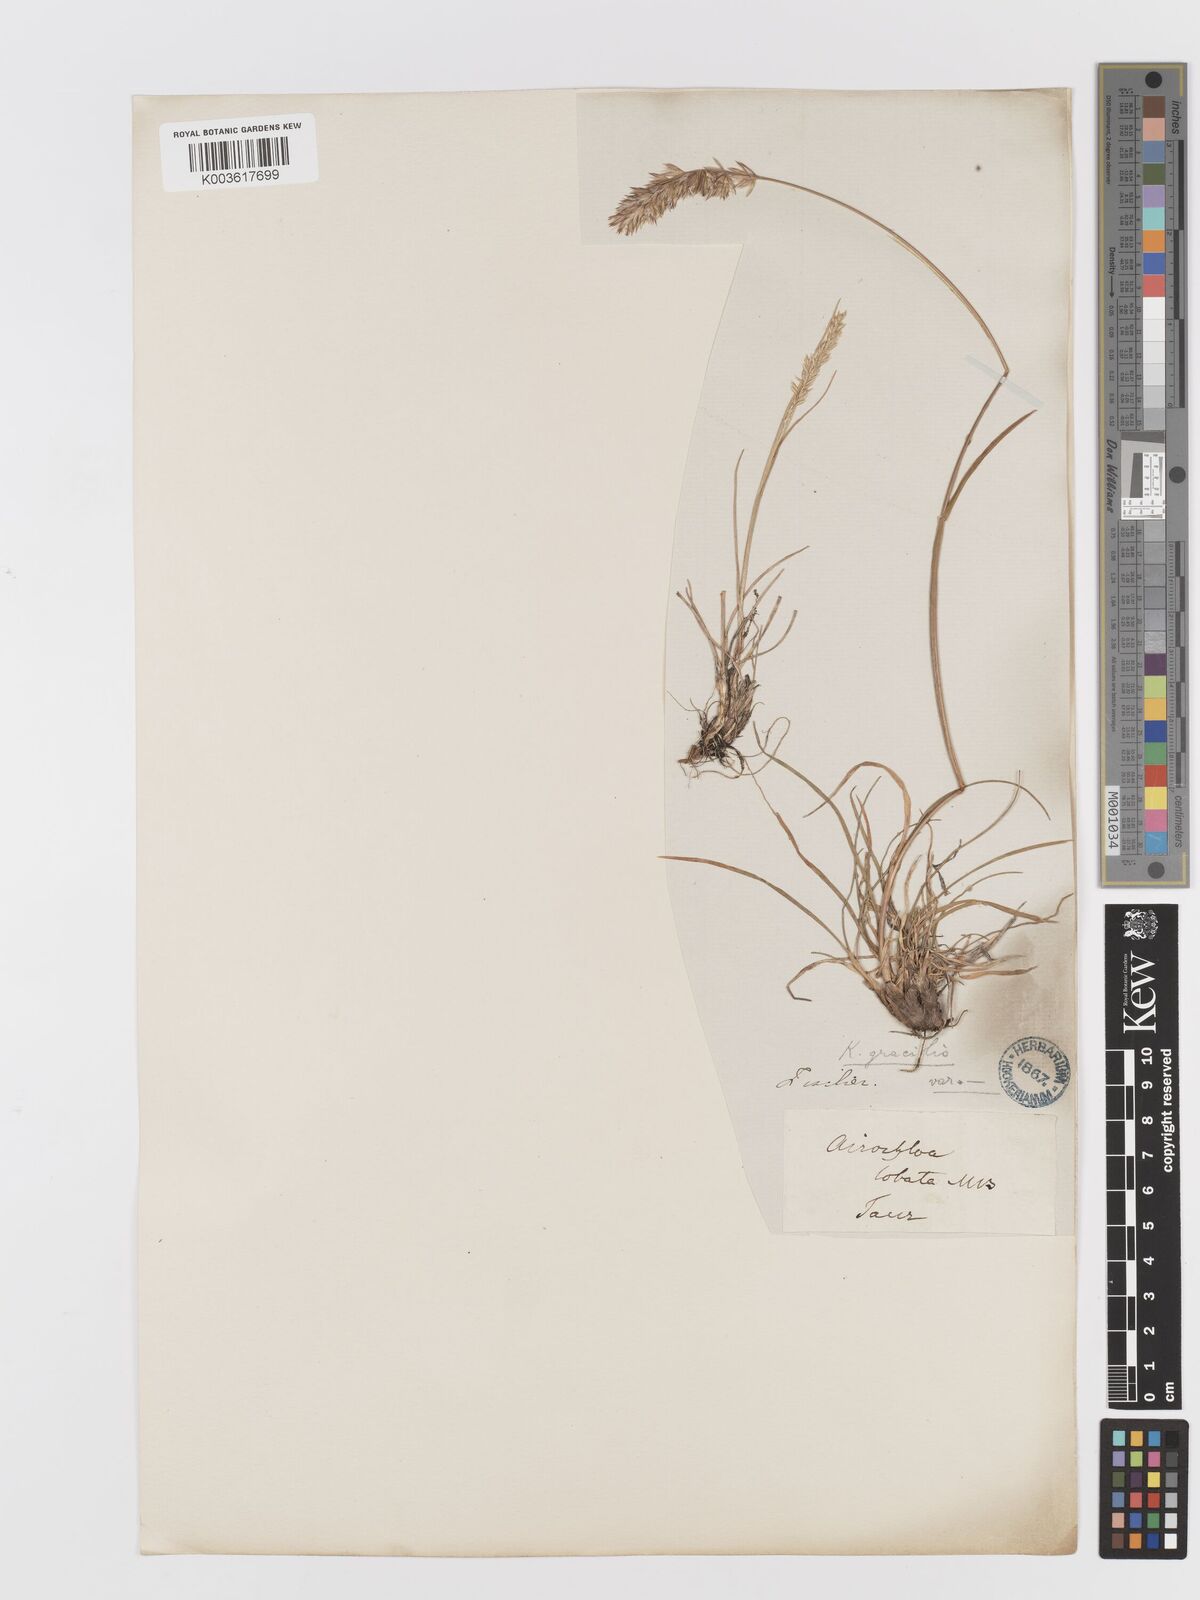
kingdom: Plantae
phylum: Tracheophyta
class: Liliopsida
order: Poales
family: Poaceae
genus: Koeleria
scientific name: Koeleria pyramidata
